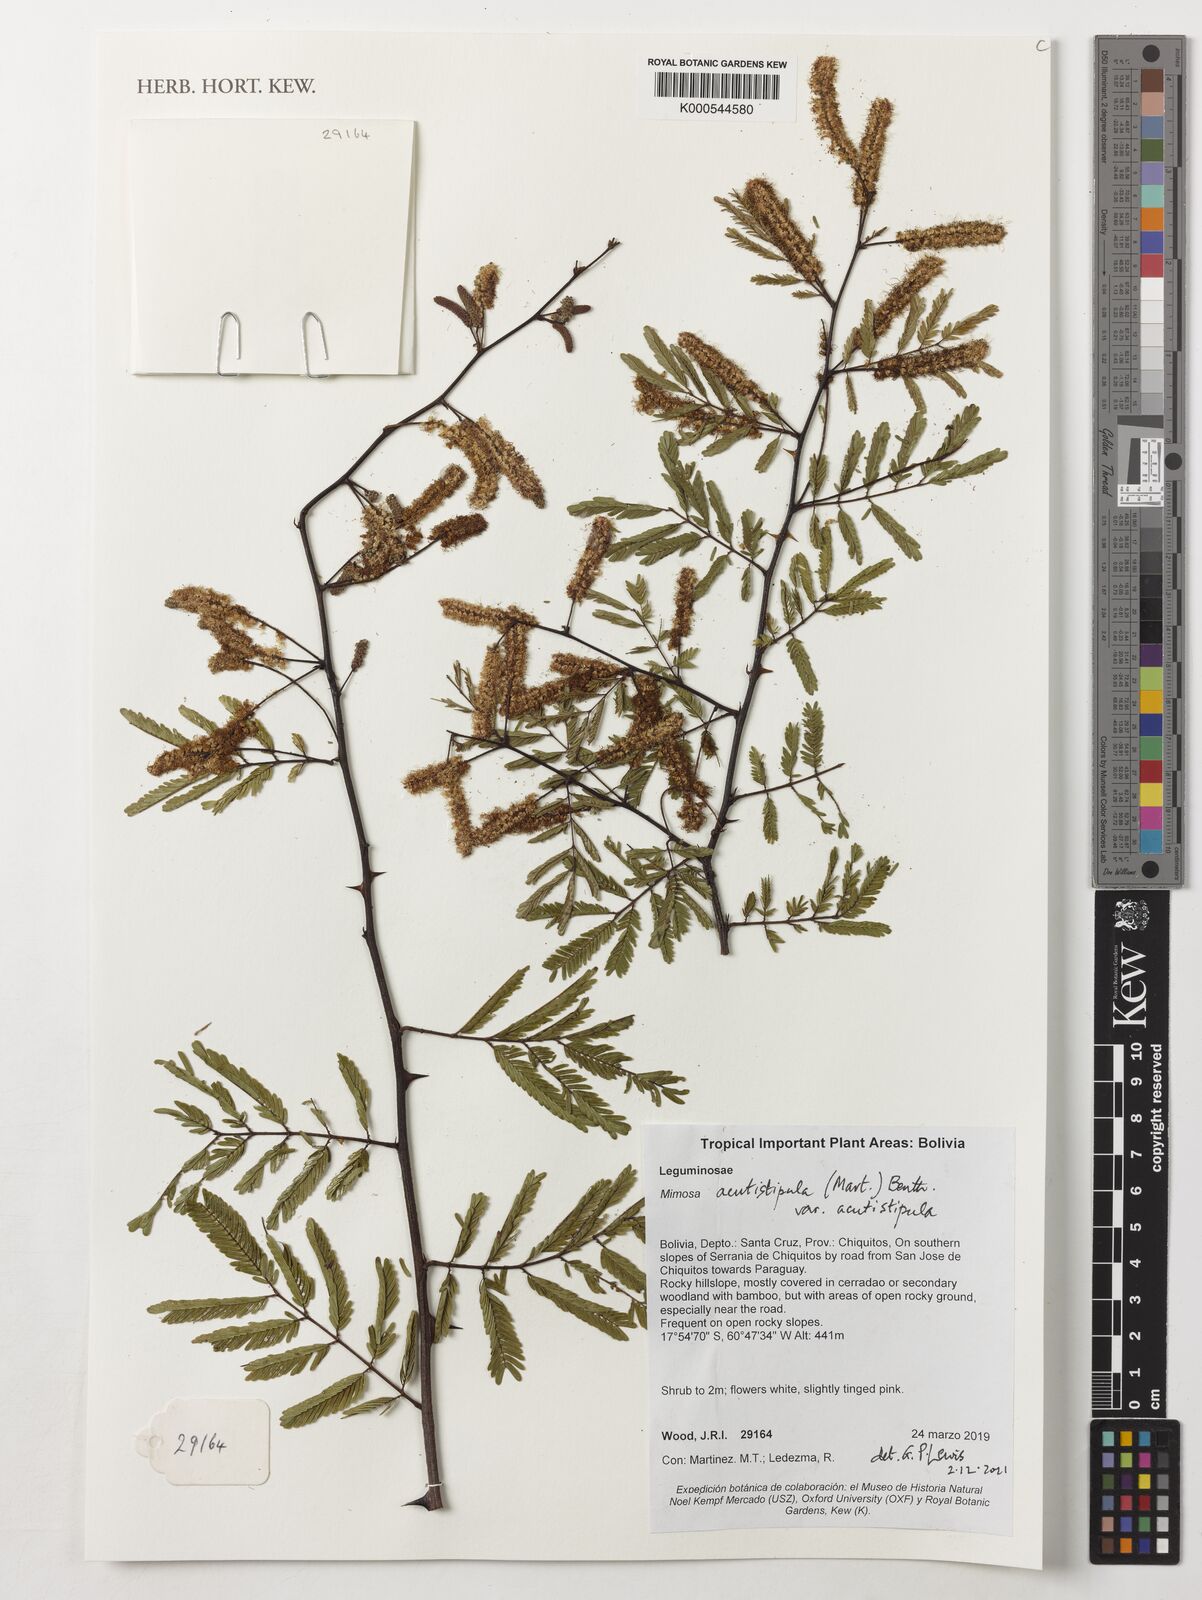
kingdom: Plantae
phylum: Tracheophyta
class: Magnoliopsida
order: Fabales
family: Fabaceae
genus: Mimosa
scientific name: Mimosa acutistipula
